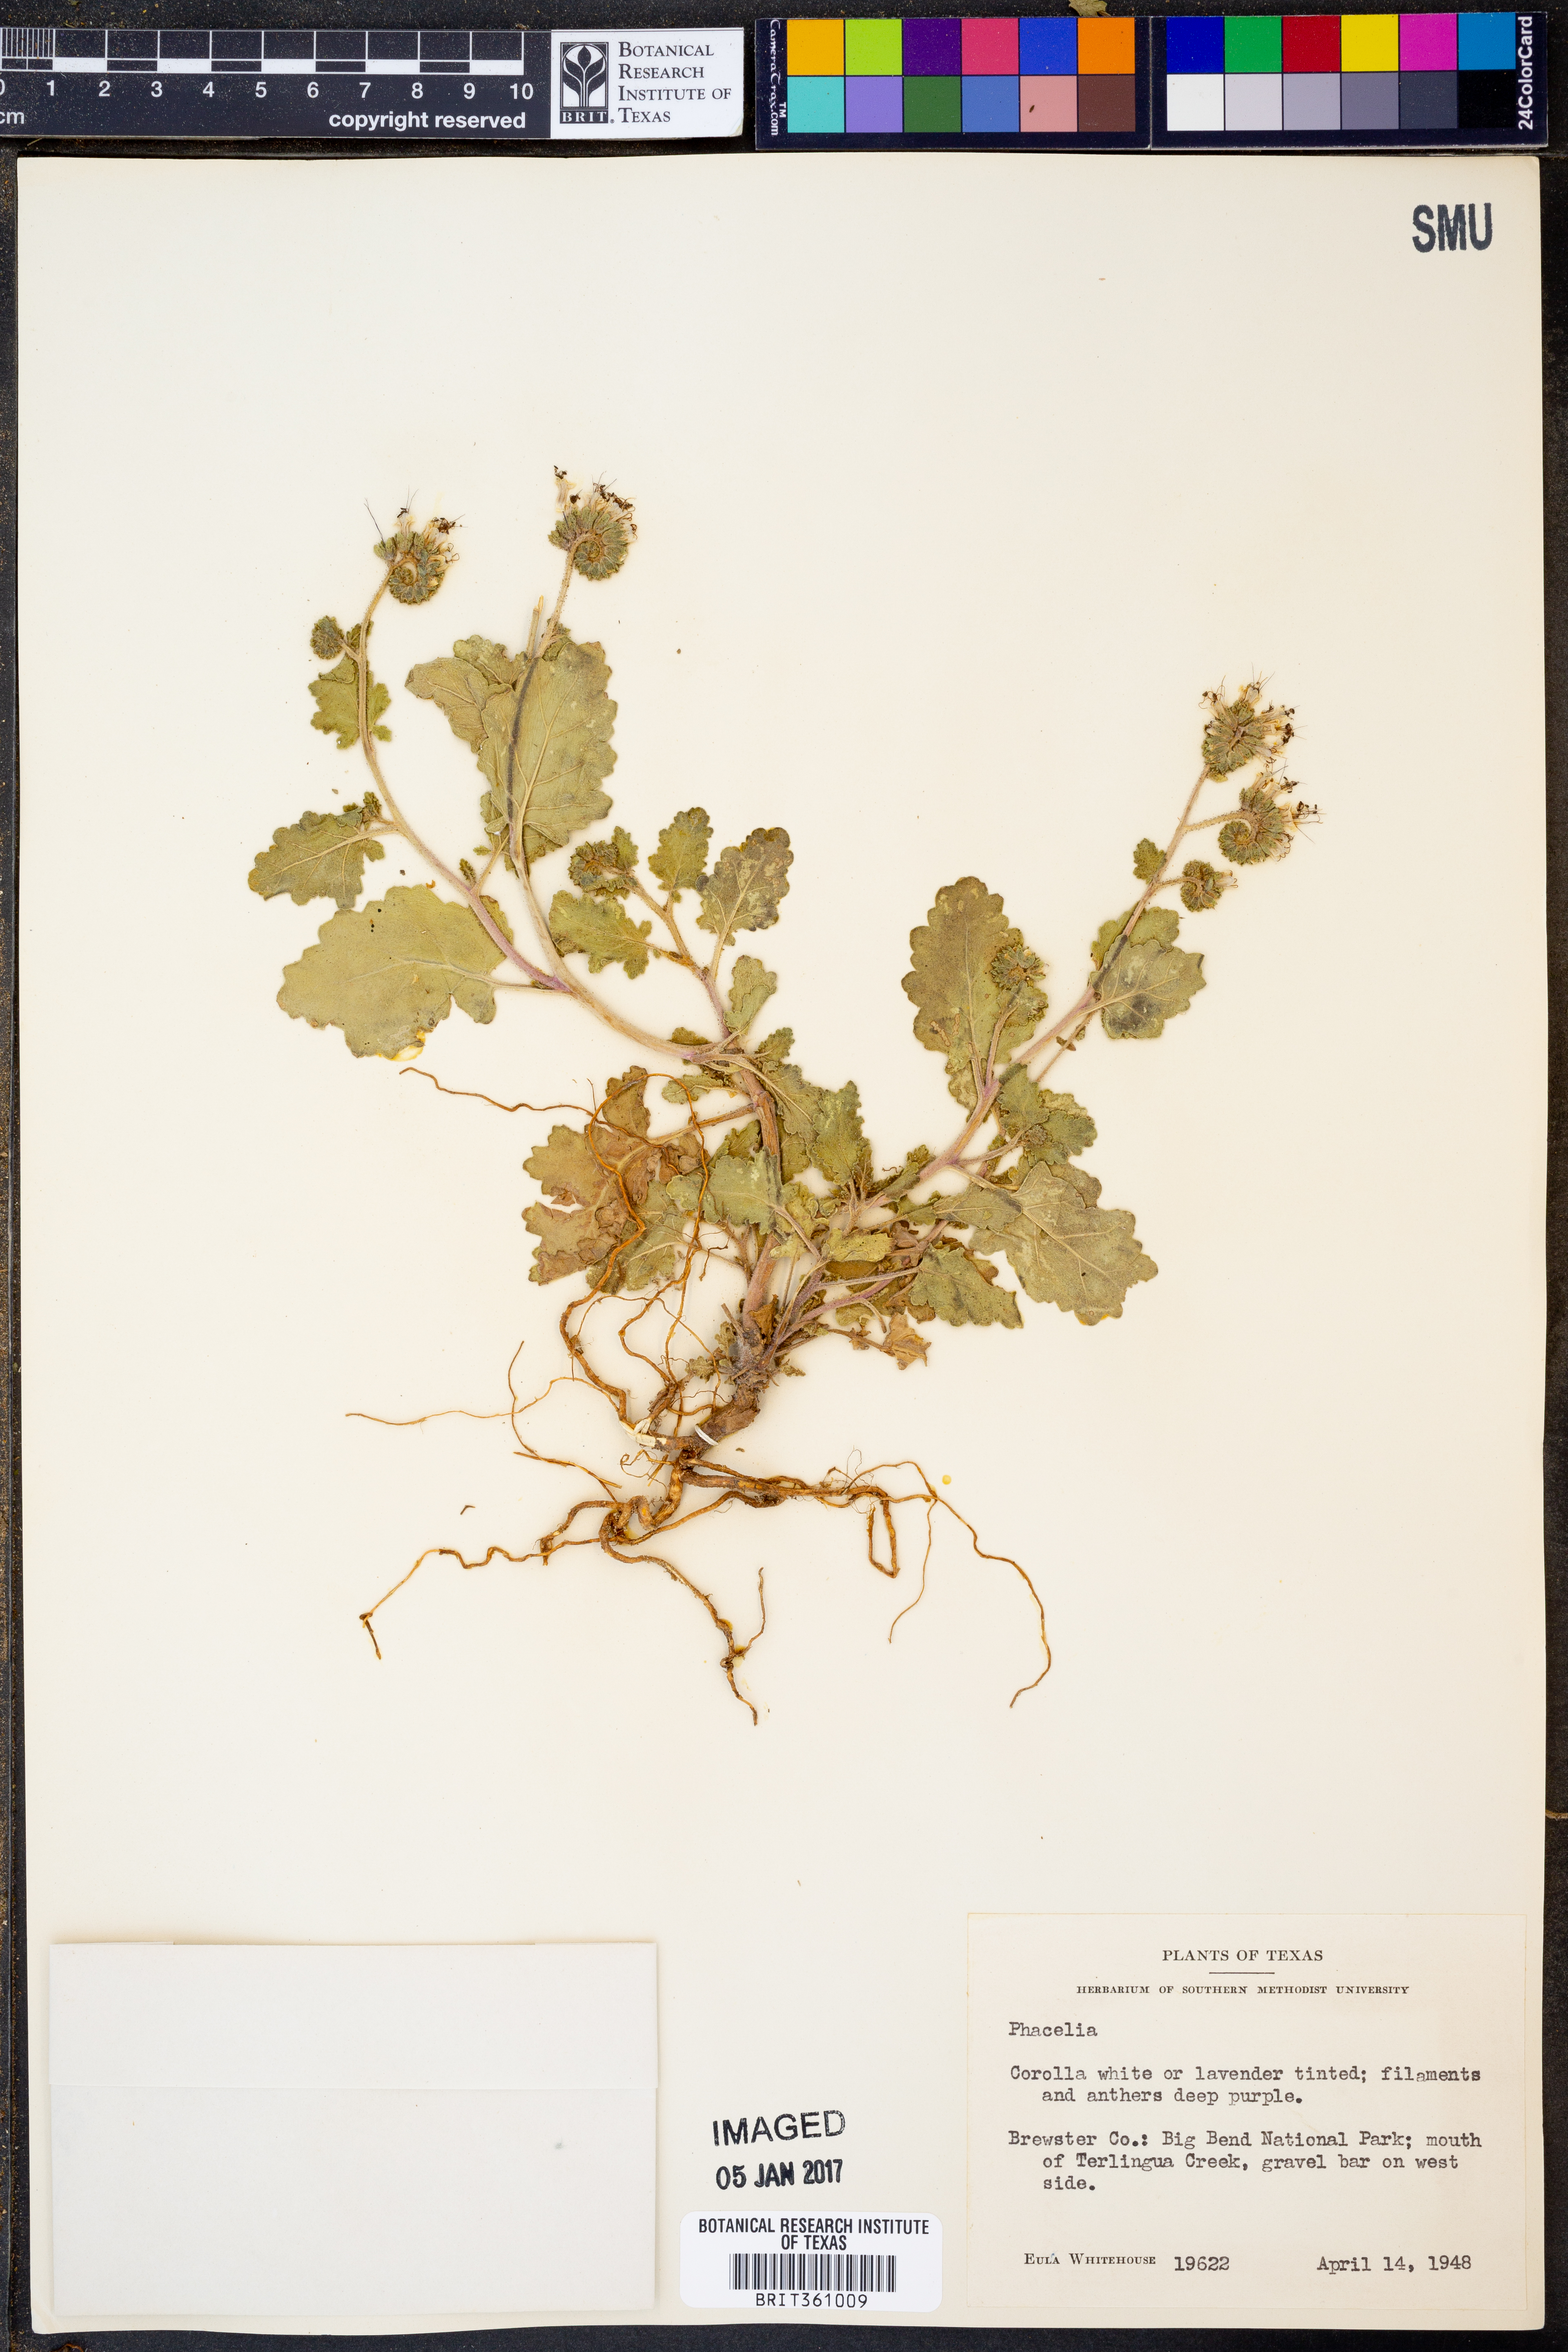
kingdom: Plantae
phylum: Tracheophyta
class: Magnoliopsida
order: Boraginales
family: Hydrophyllaceae
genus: Phacelia
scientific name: Phacelia
